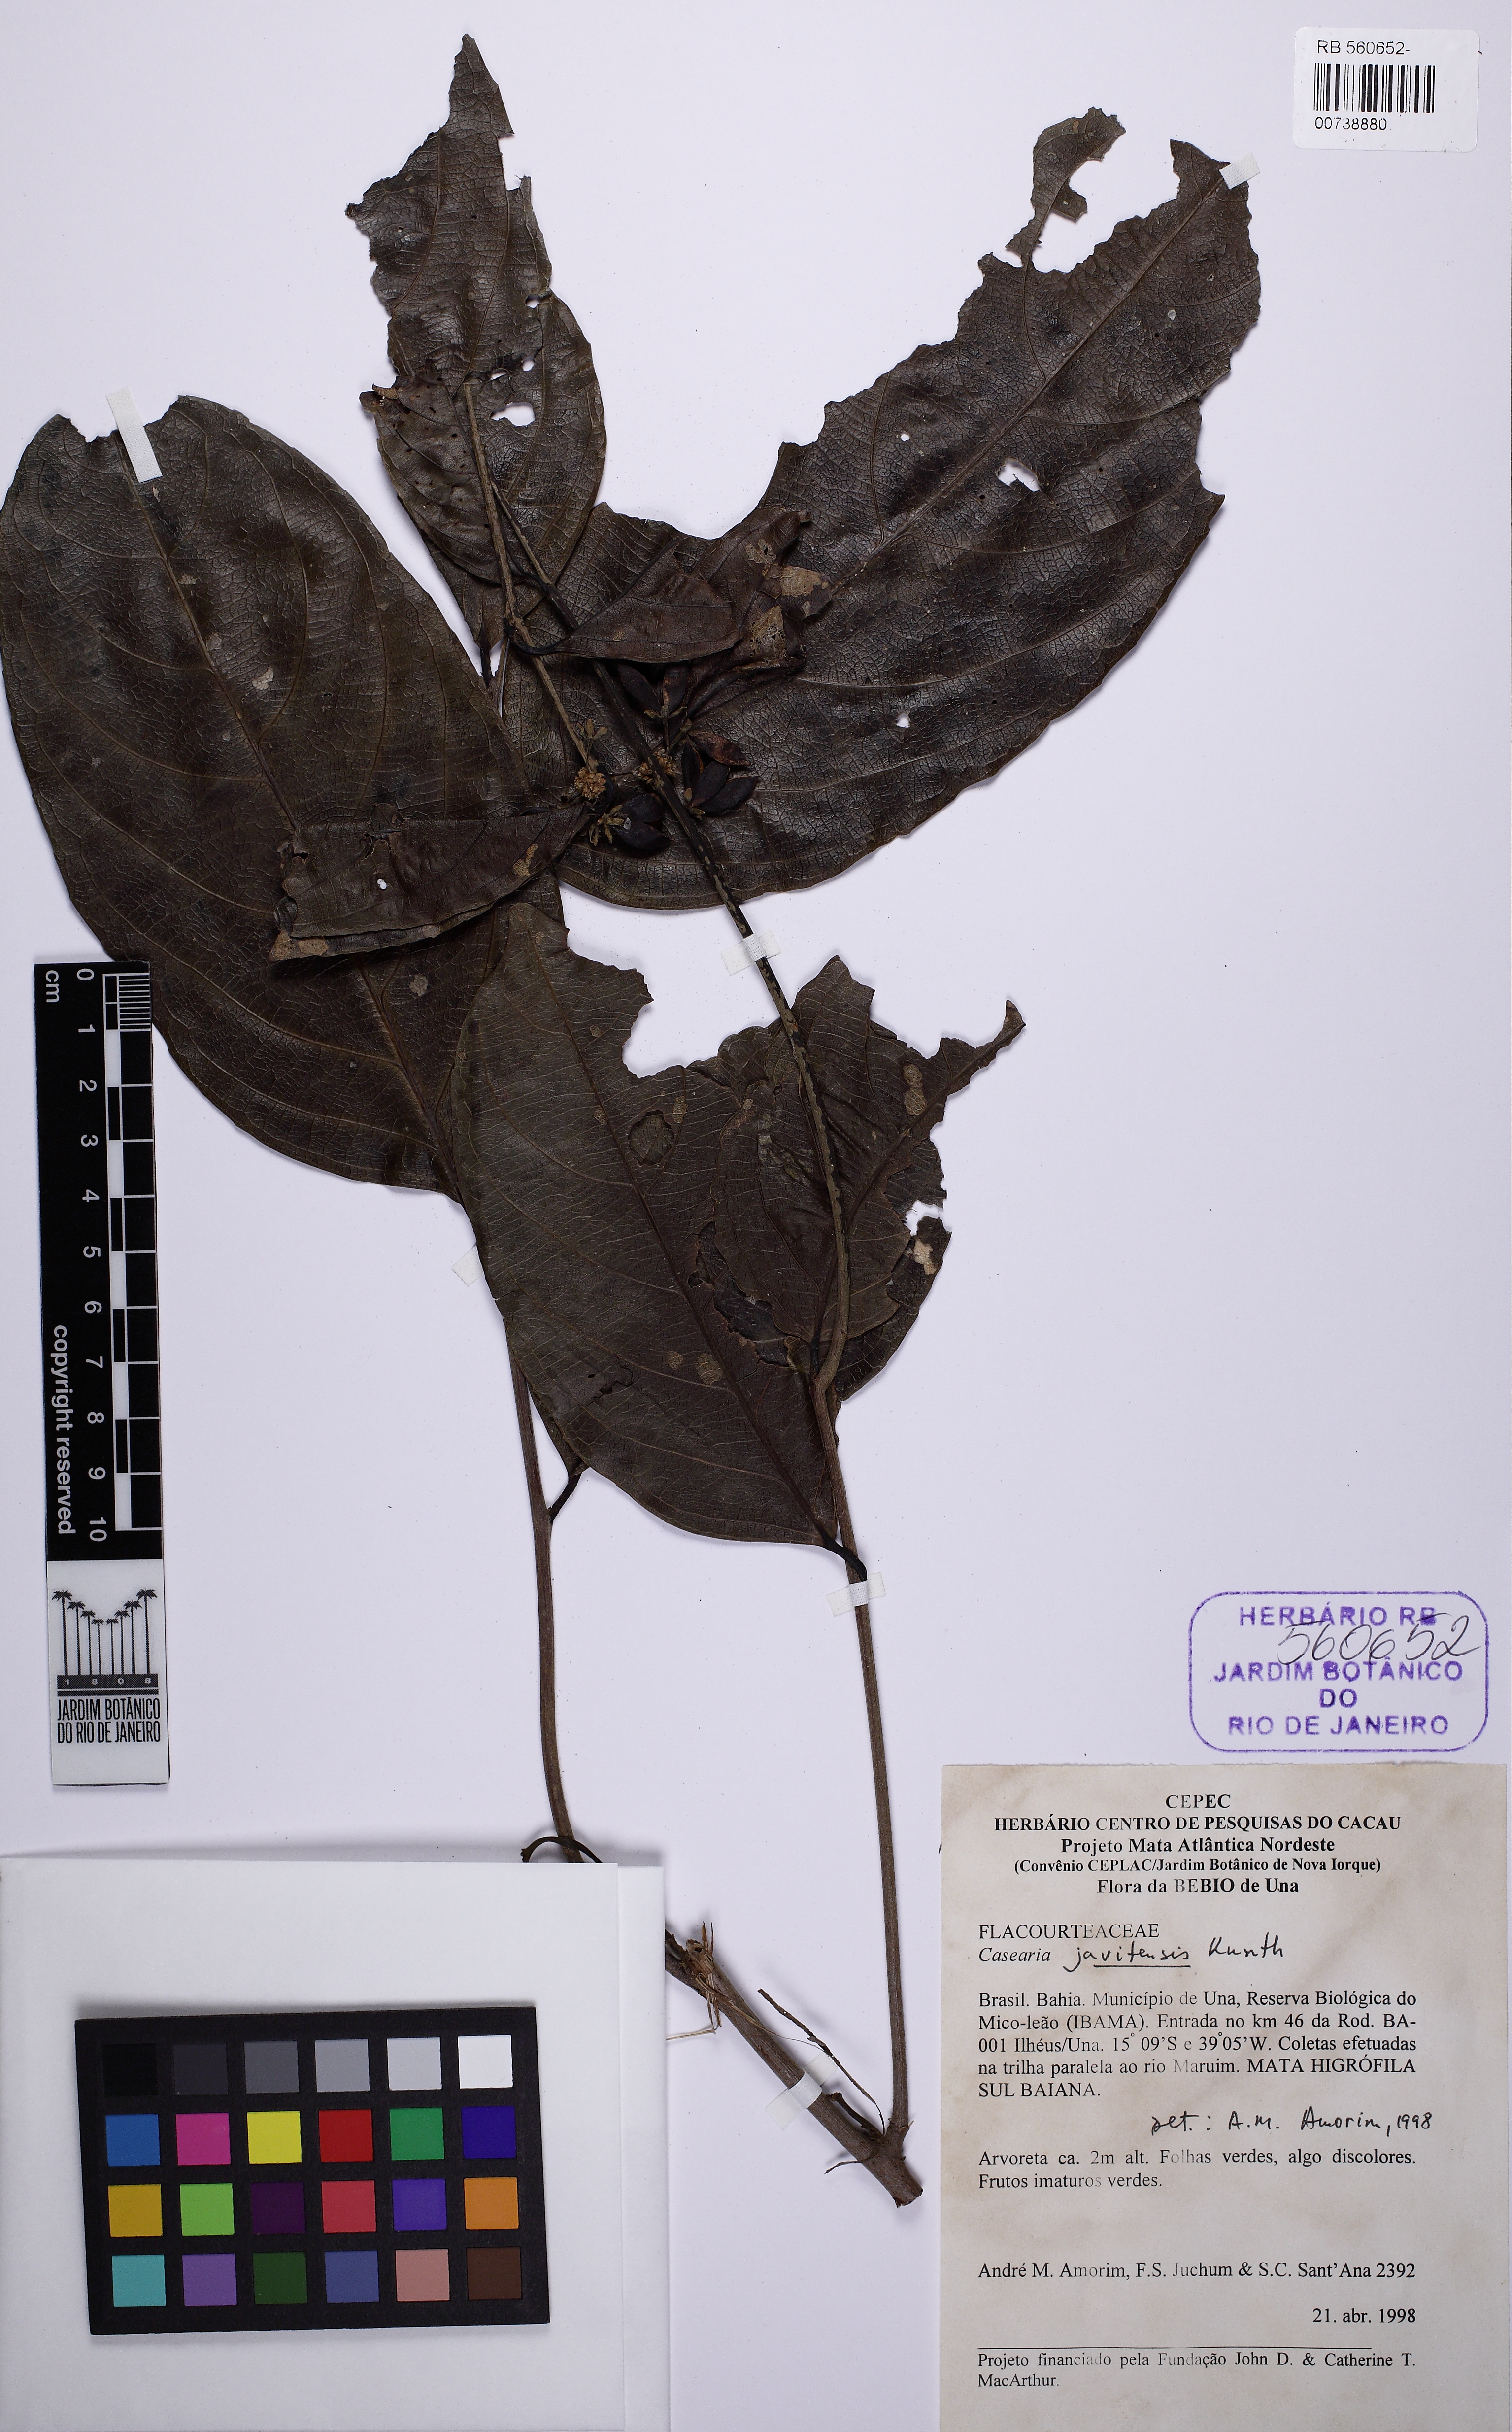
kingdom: Plantae
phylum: Tracheophyta
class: Magnoliopsida
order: Malpighiales
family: Salicaceae
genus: Piparea
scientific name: Piparea multiflora
